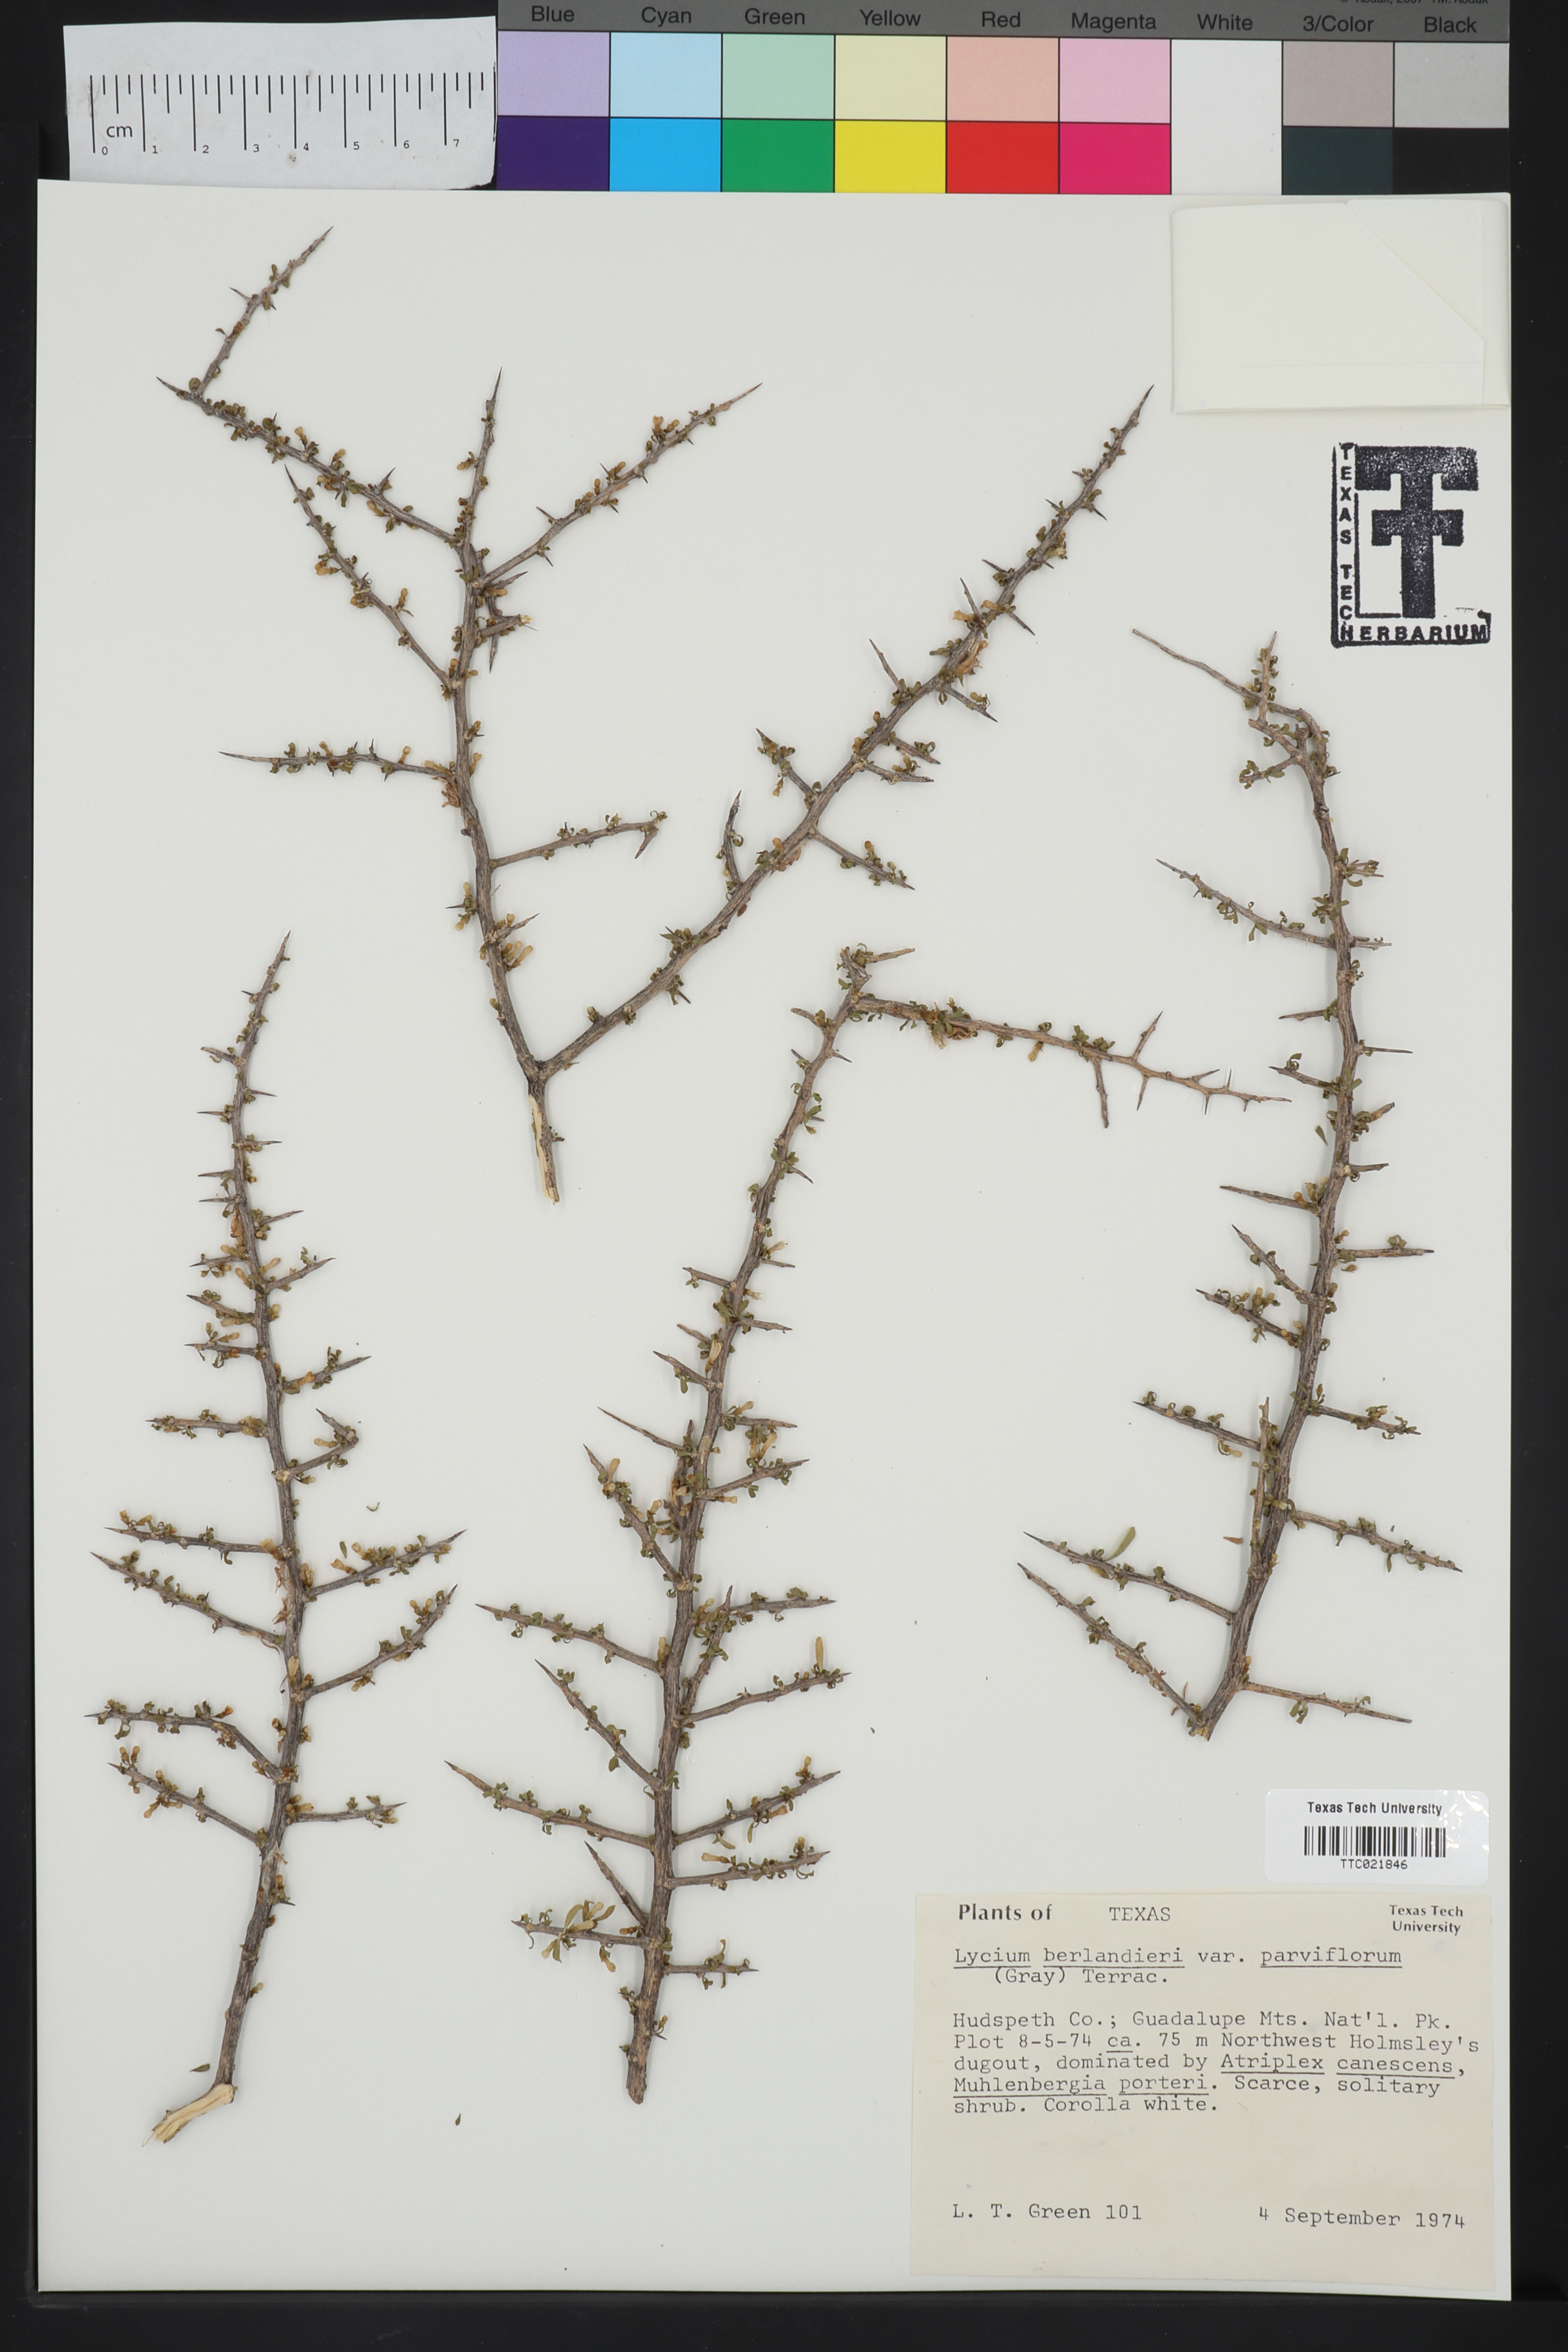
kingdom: Plantae
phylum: Tracheophyta
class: Magnoliopsida
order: Solanales
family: Solanaceae
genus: Lycium
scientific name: Lycium berlandieri
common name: Berlandier wolfberry
